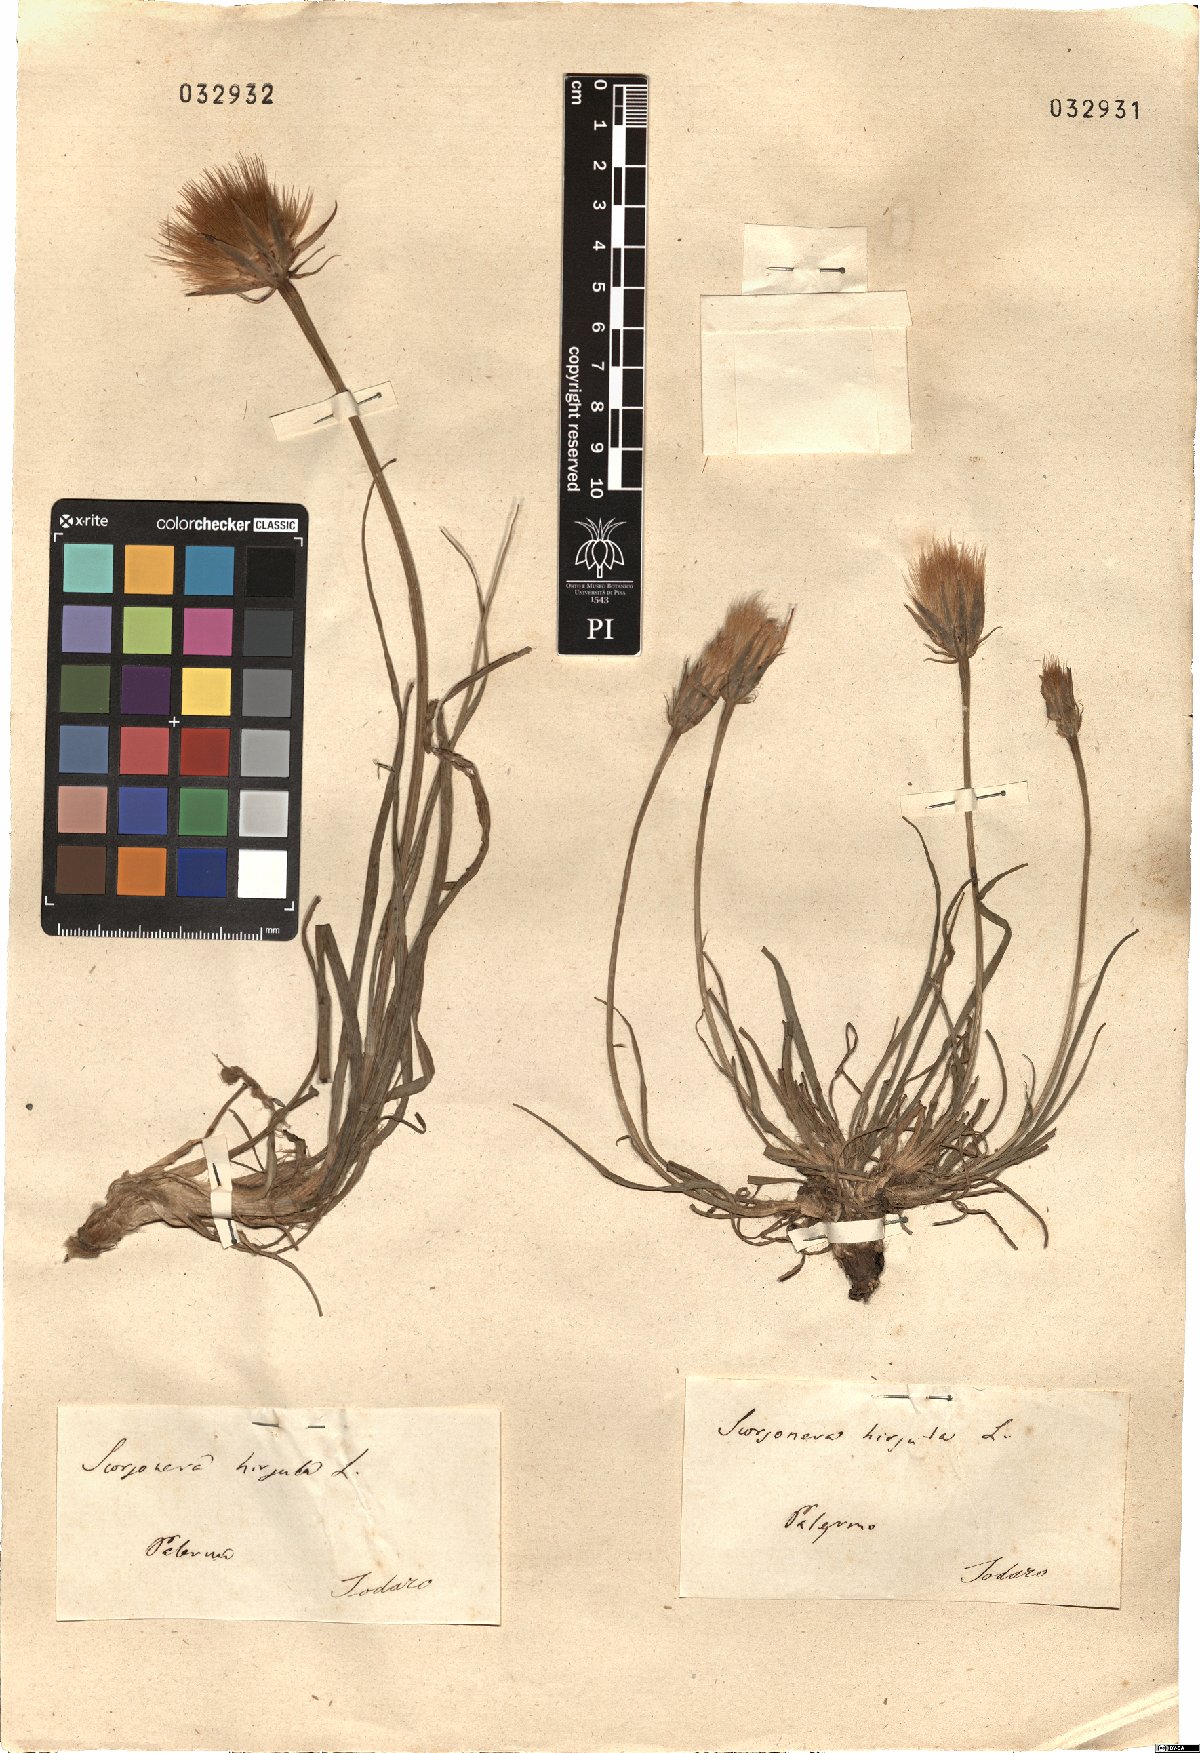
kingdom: Plantae
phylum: Tracheophyta
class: Magnoliopsida
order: Asterales
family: Asteraceae
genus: Gelasia
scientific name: Gelasia hirsuta
